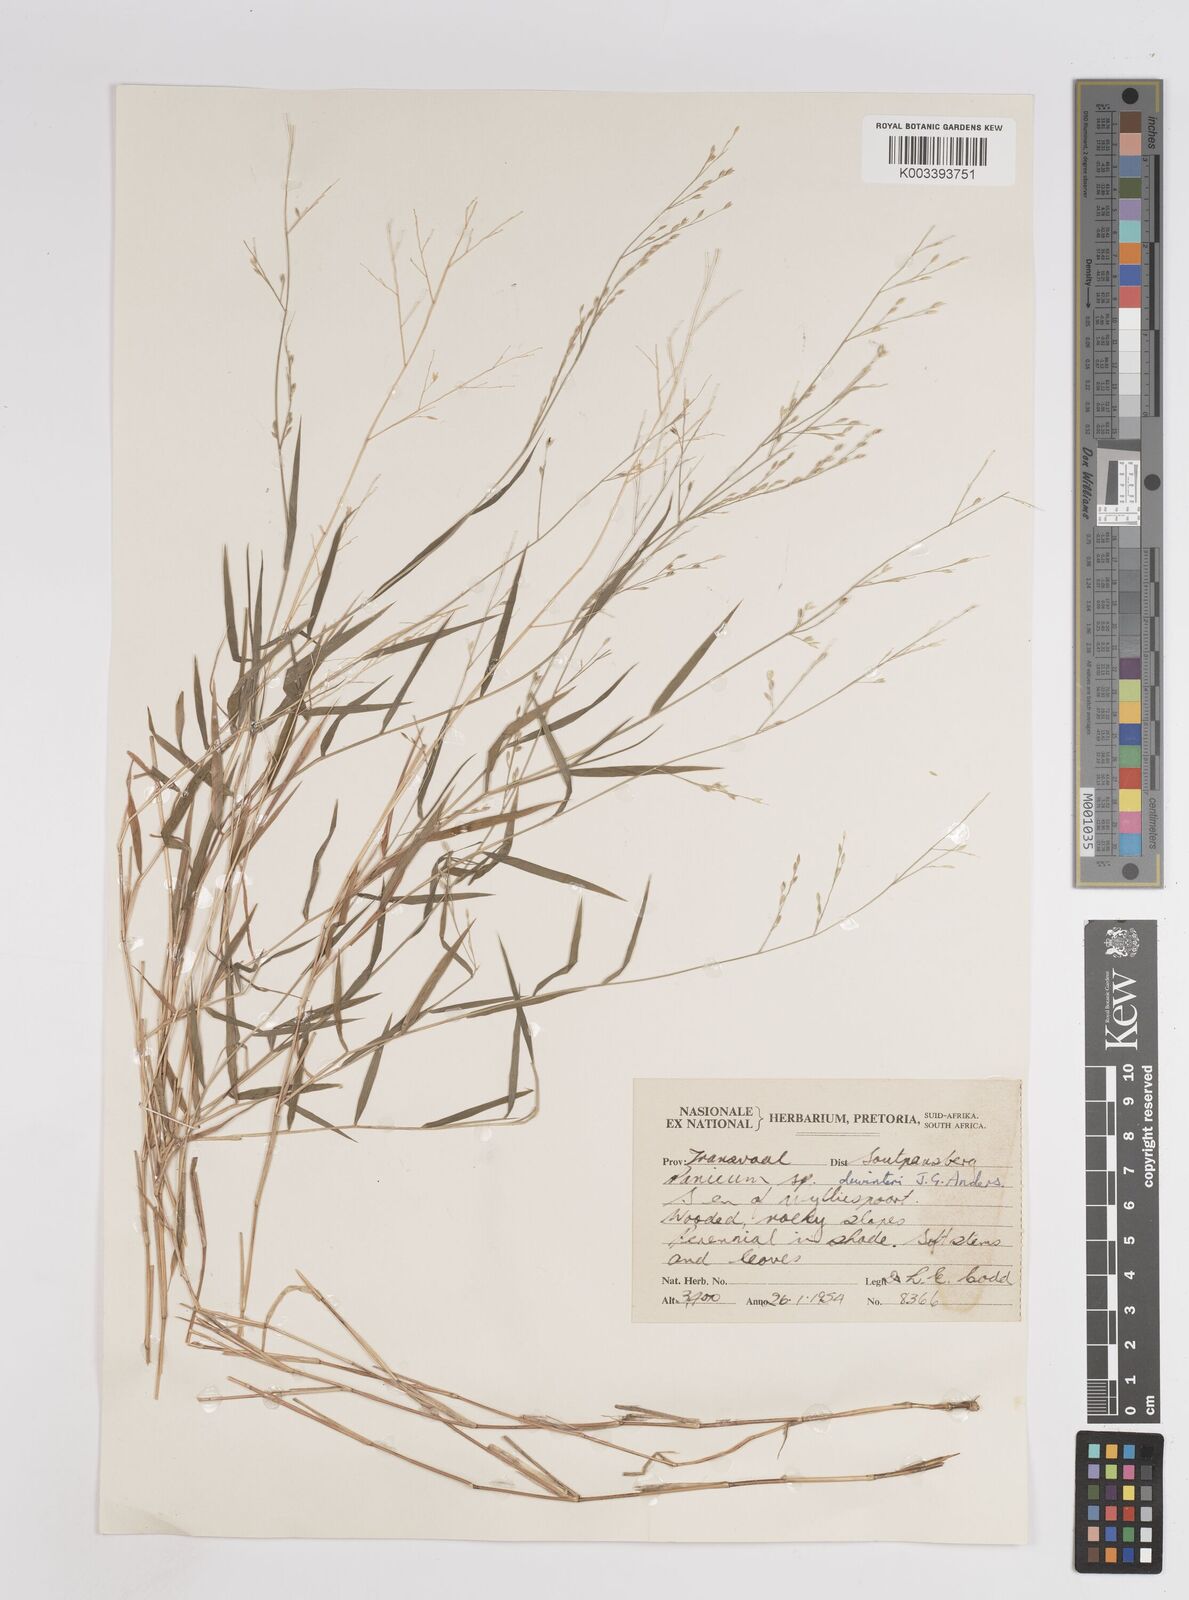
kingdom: Plantae
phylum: Tracheophyta
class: Liliopsida
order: Poales
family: Poaceae
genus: Panicum
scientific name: Panicum dewinteri
